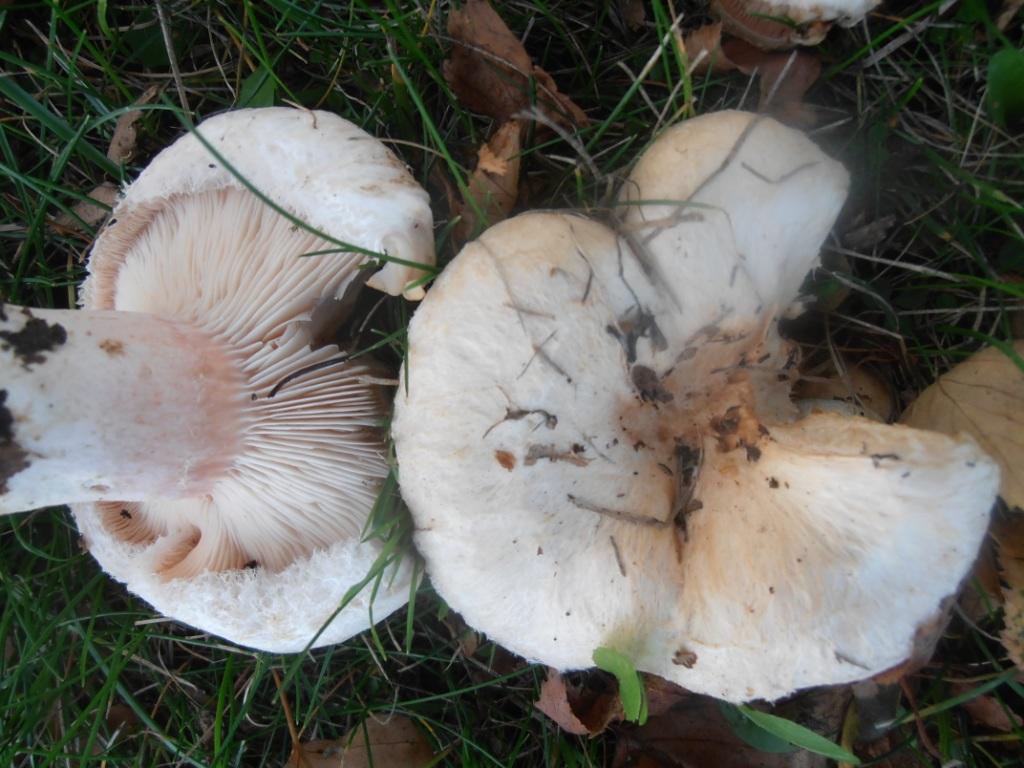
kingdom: Fungi
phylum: Basidiomycota
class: Agaricomycetes
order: Russulales
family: Russulaceae
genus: Lactarius
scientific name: Lactarius pubescens
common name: dunet mælkehat
